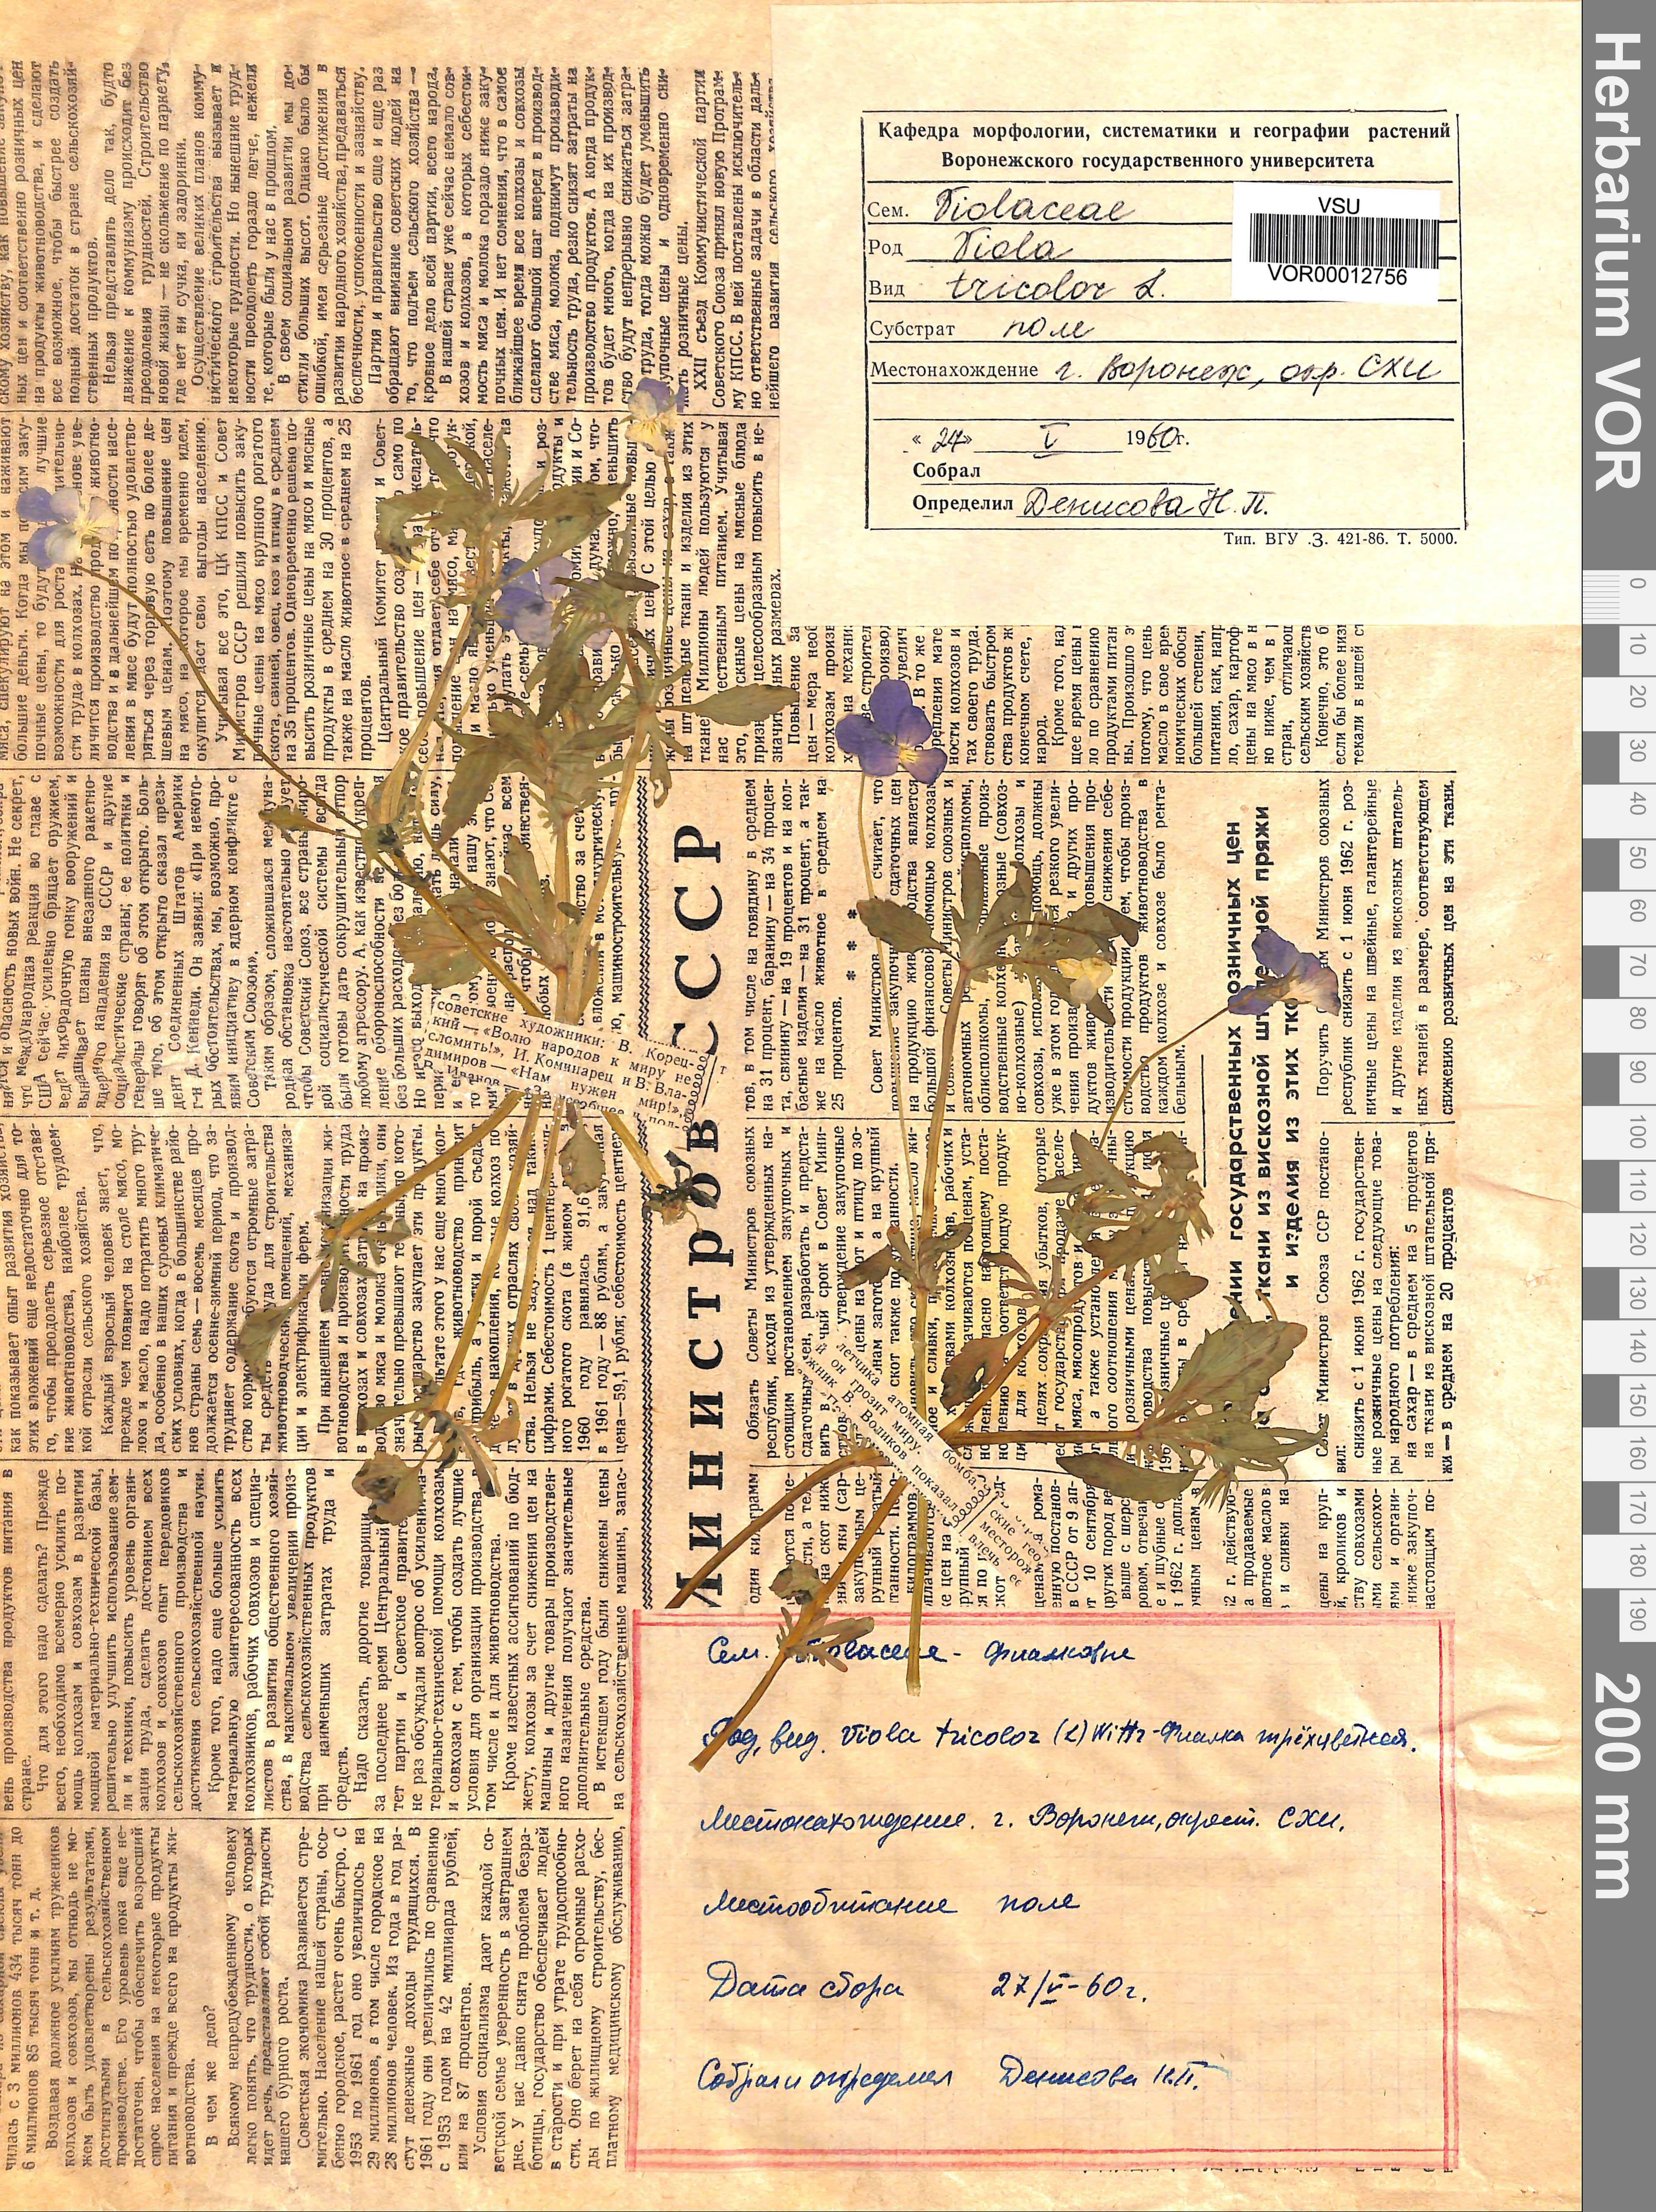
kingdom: Plantae
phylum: Tracheophyta
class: Magnoliopsida
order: Malpighiales
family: Violaceae
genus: Viola
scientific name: Viola tricolor
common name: Pansy
